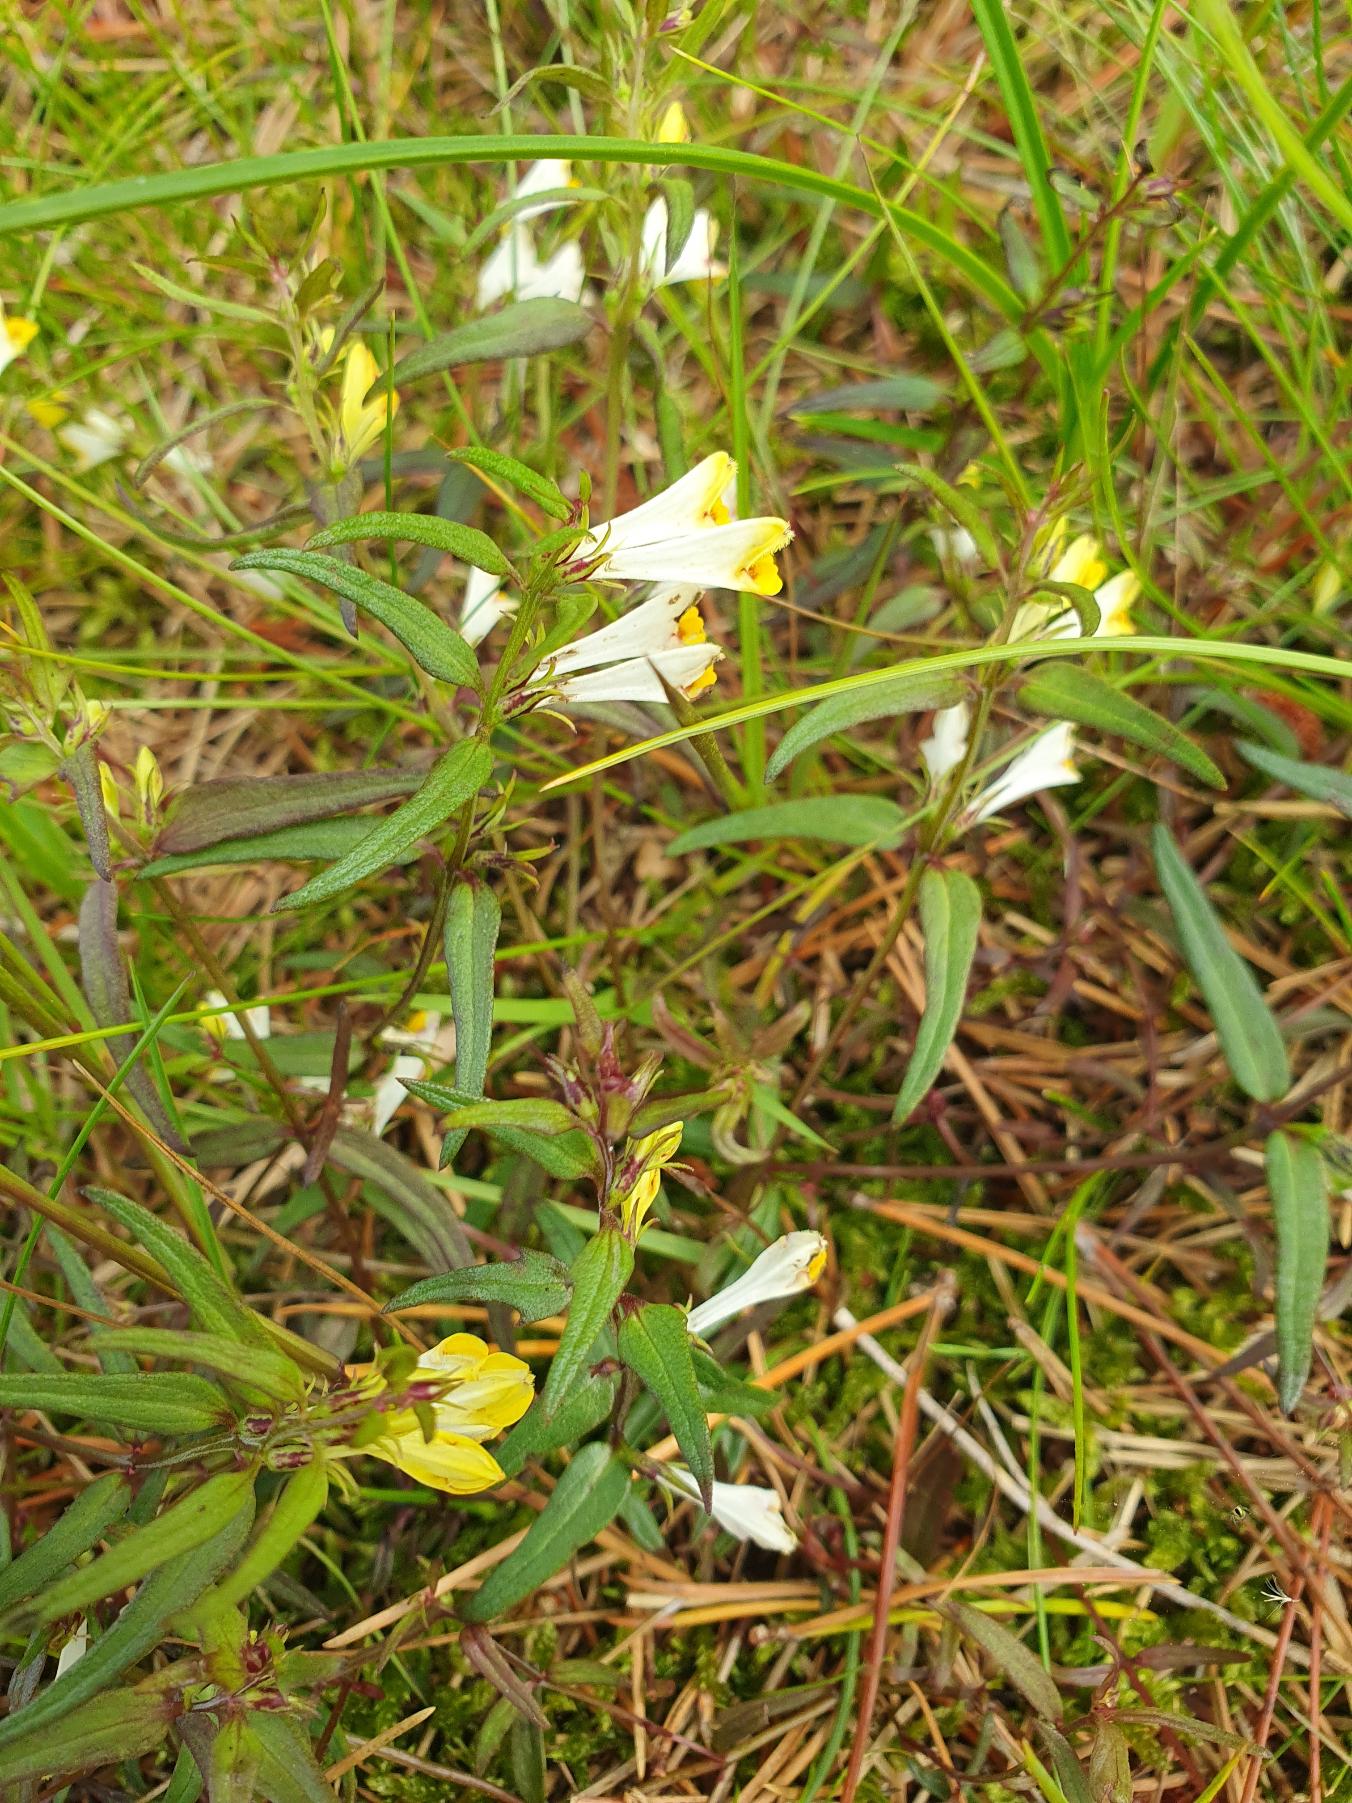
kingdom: Plantae
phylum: Tracheophyta
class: Magnoliopsida
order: Lamiales
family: Orobanchaceae
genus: Melampyrum
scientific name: Melampyrum pratense
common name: Almindelig kohvede
